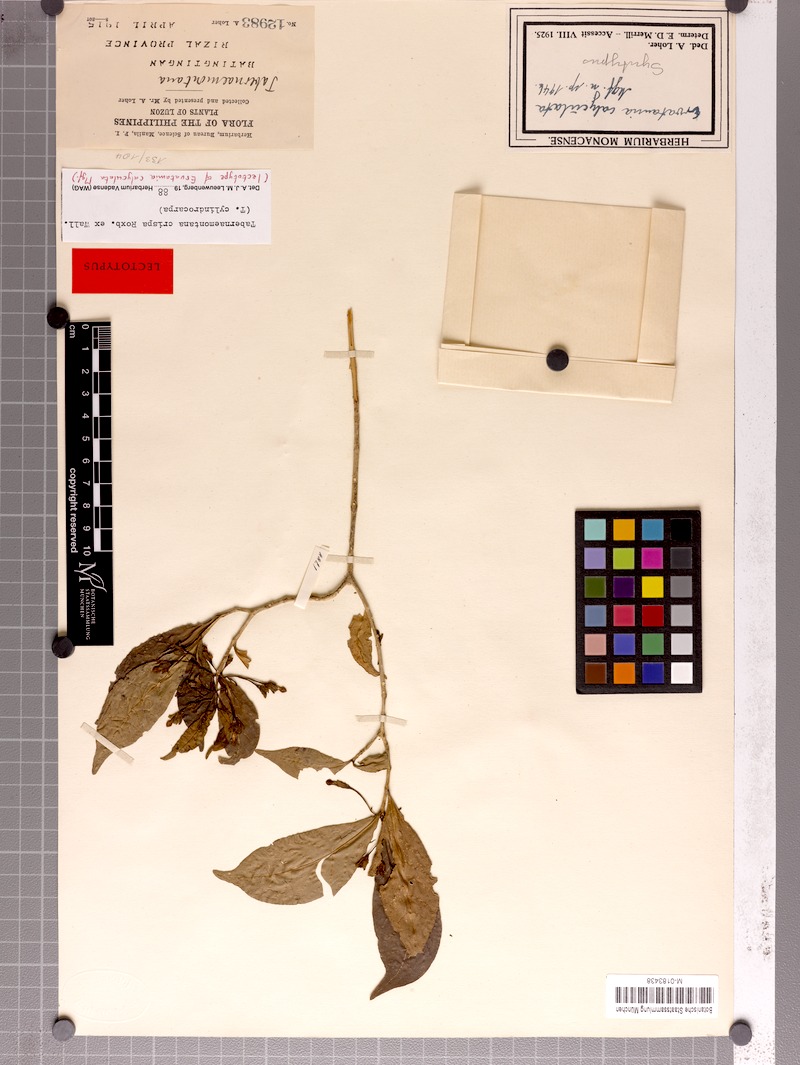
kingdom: Plantae
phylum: Tracheophyta
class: Magnoliopsida
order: Gentianales
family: Apocynaceae
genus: Tabernaemontana
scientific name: Tabernaemontana rostrata
